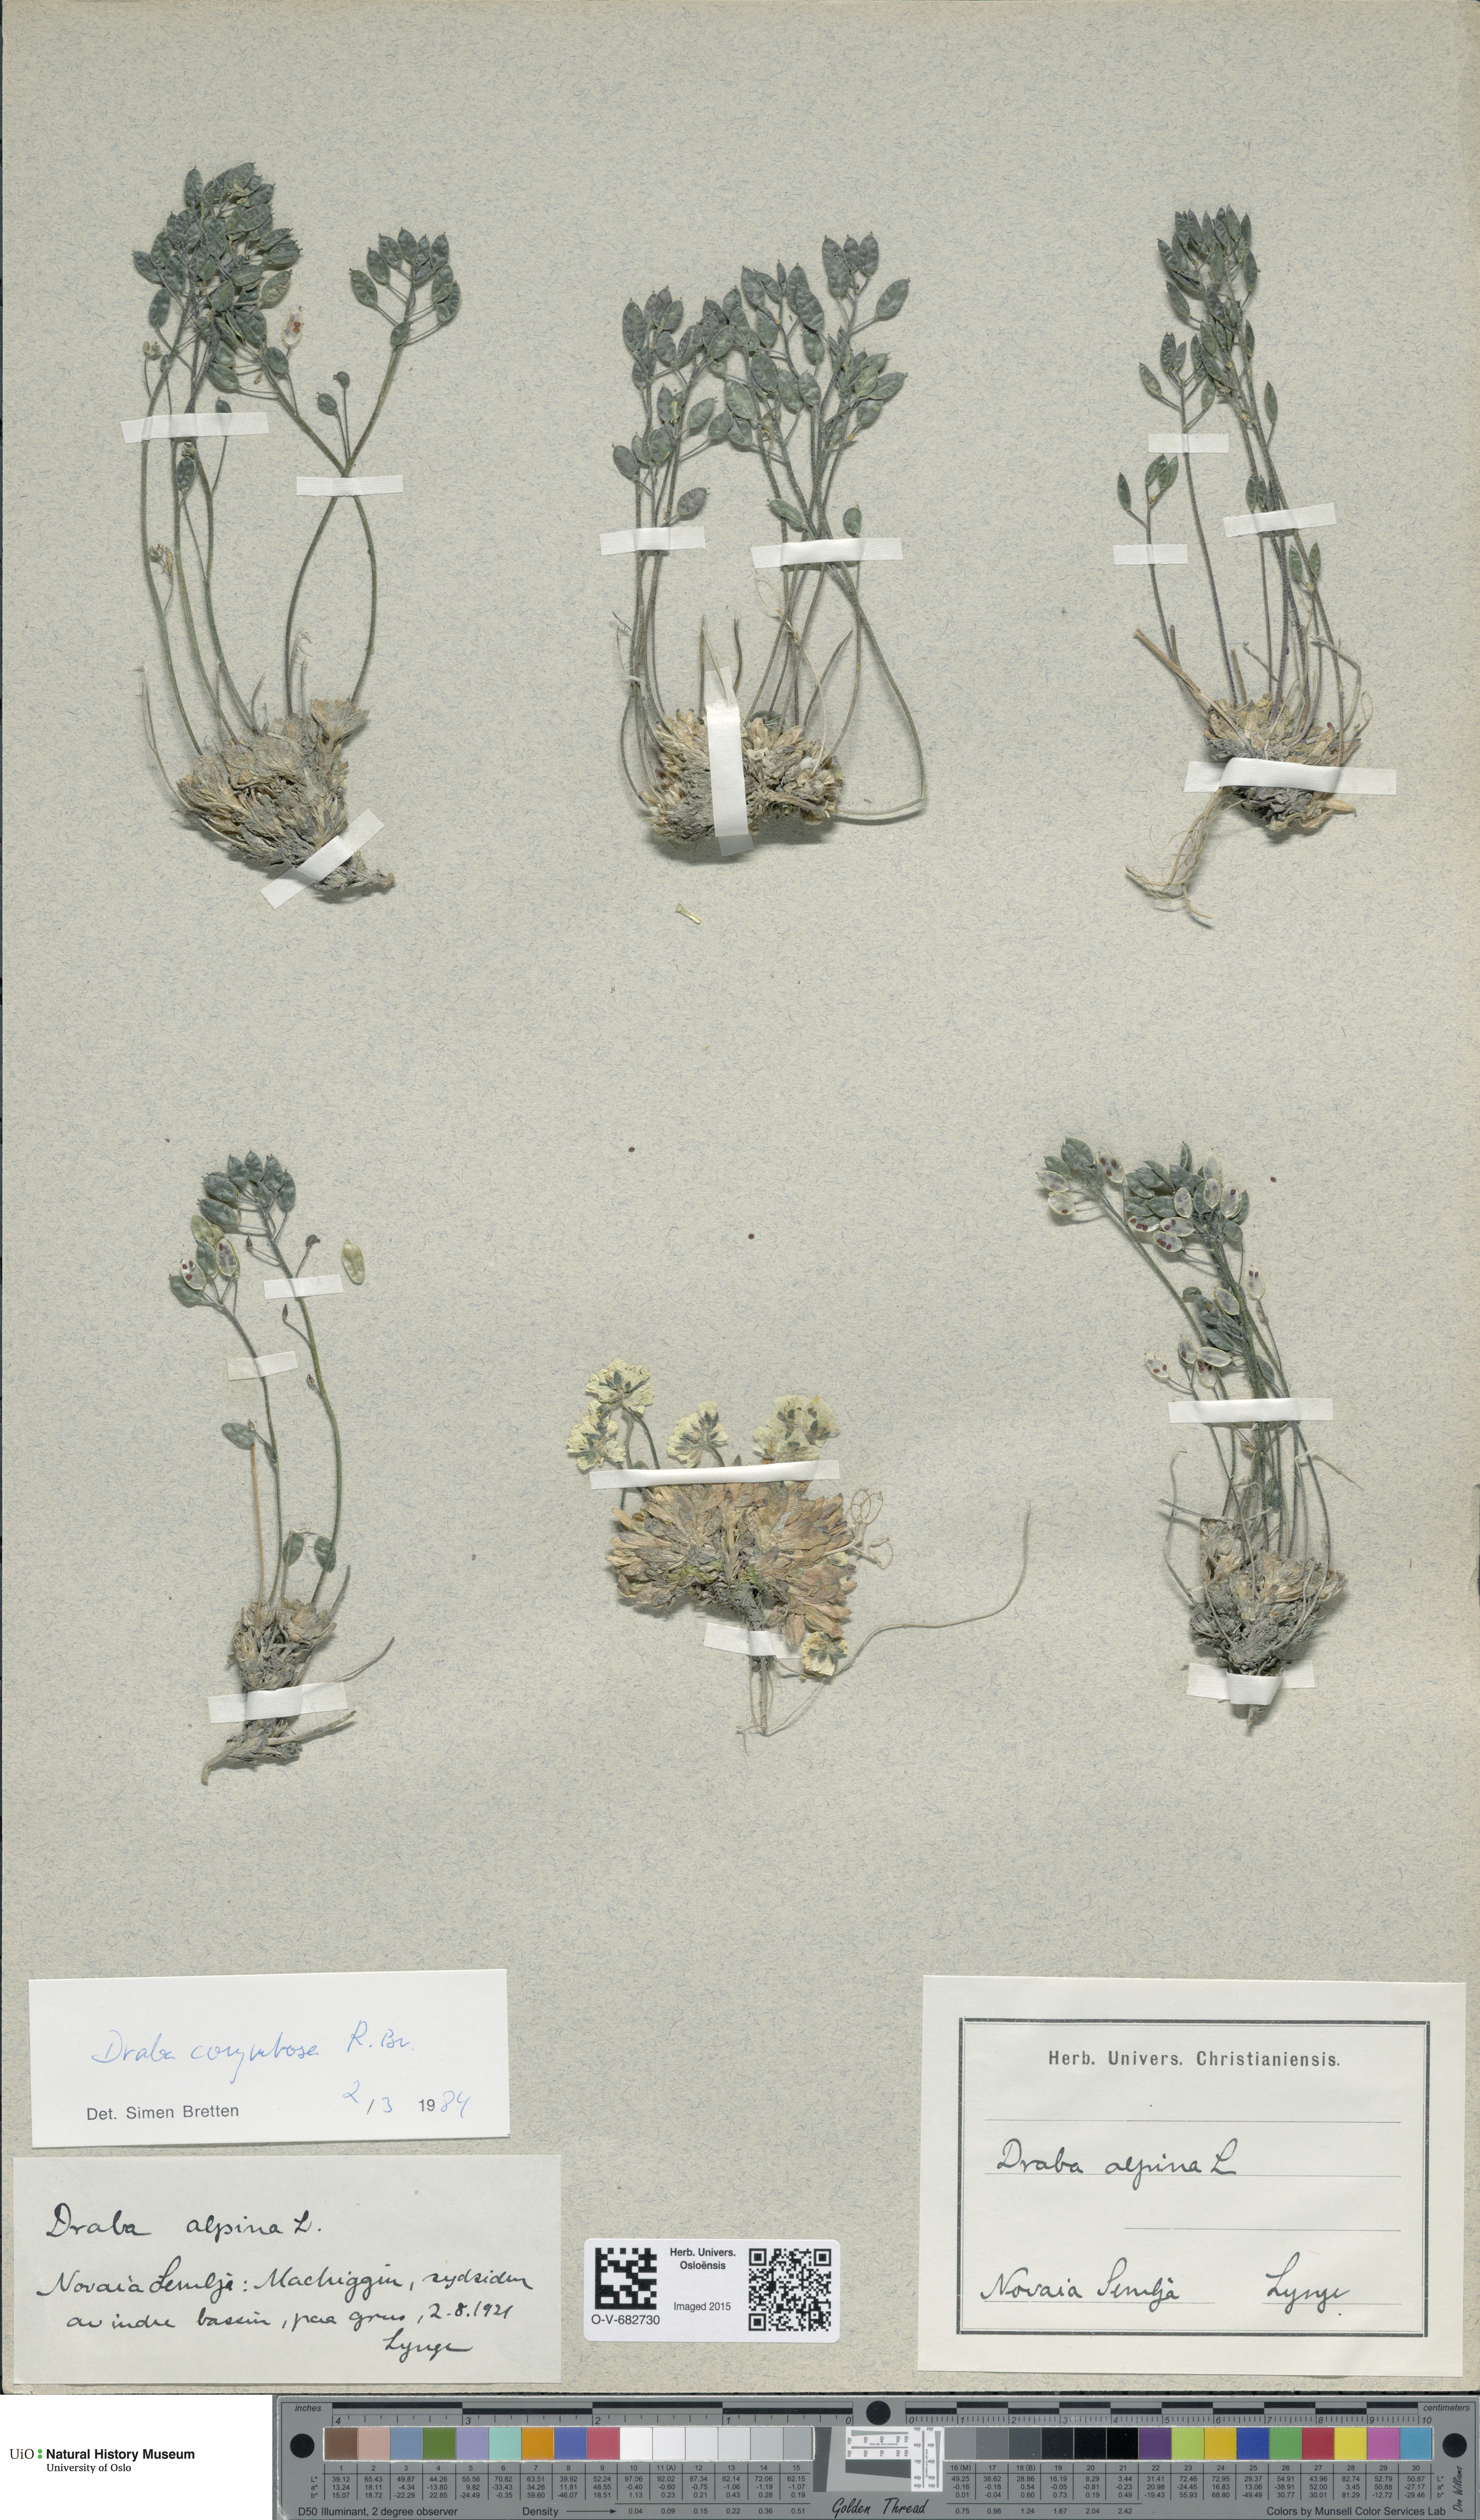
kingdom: Plantae
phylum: Tracheophyta
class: Magnoliopsida
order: Brassicales
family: Brassicaceae
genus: Draba
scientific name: Draba corymbosa
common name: Cushion whitlow-grass
